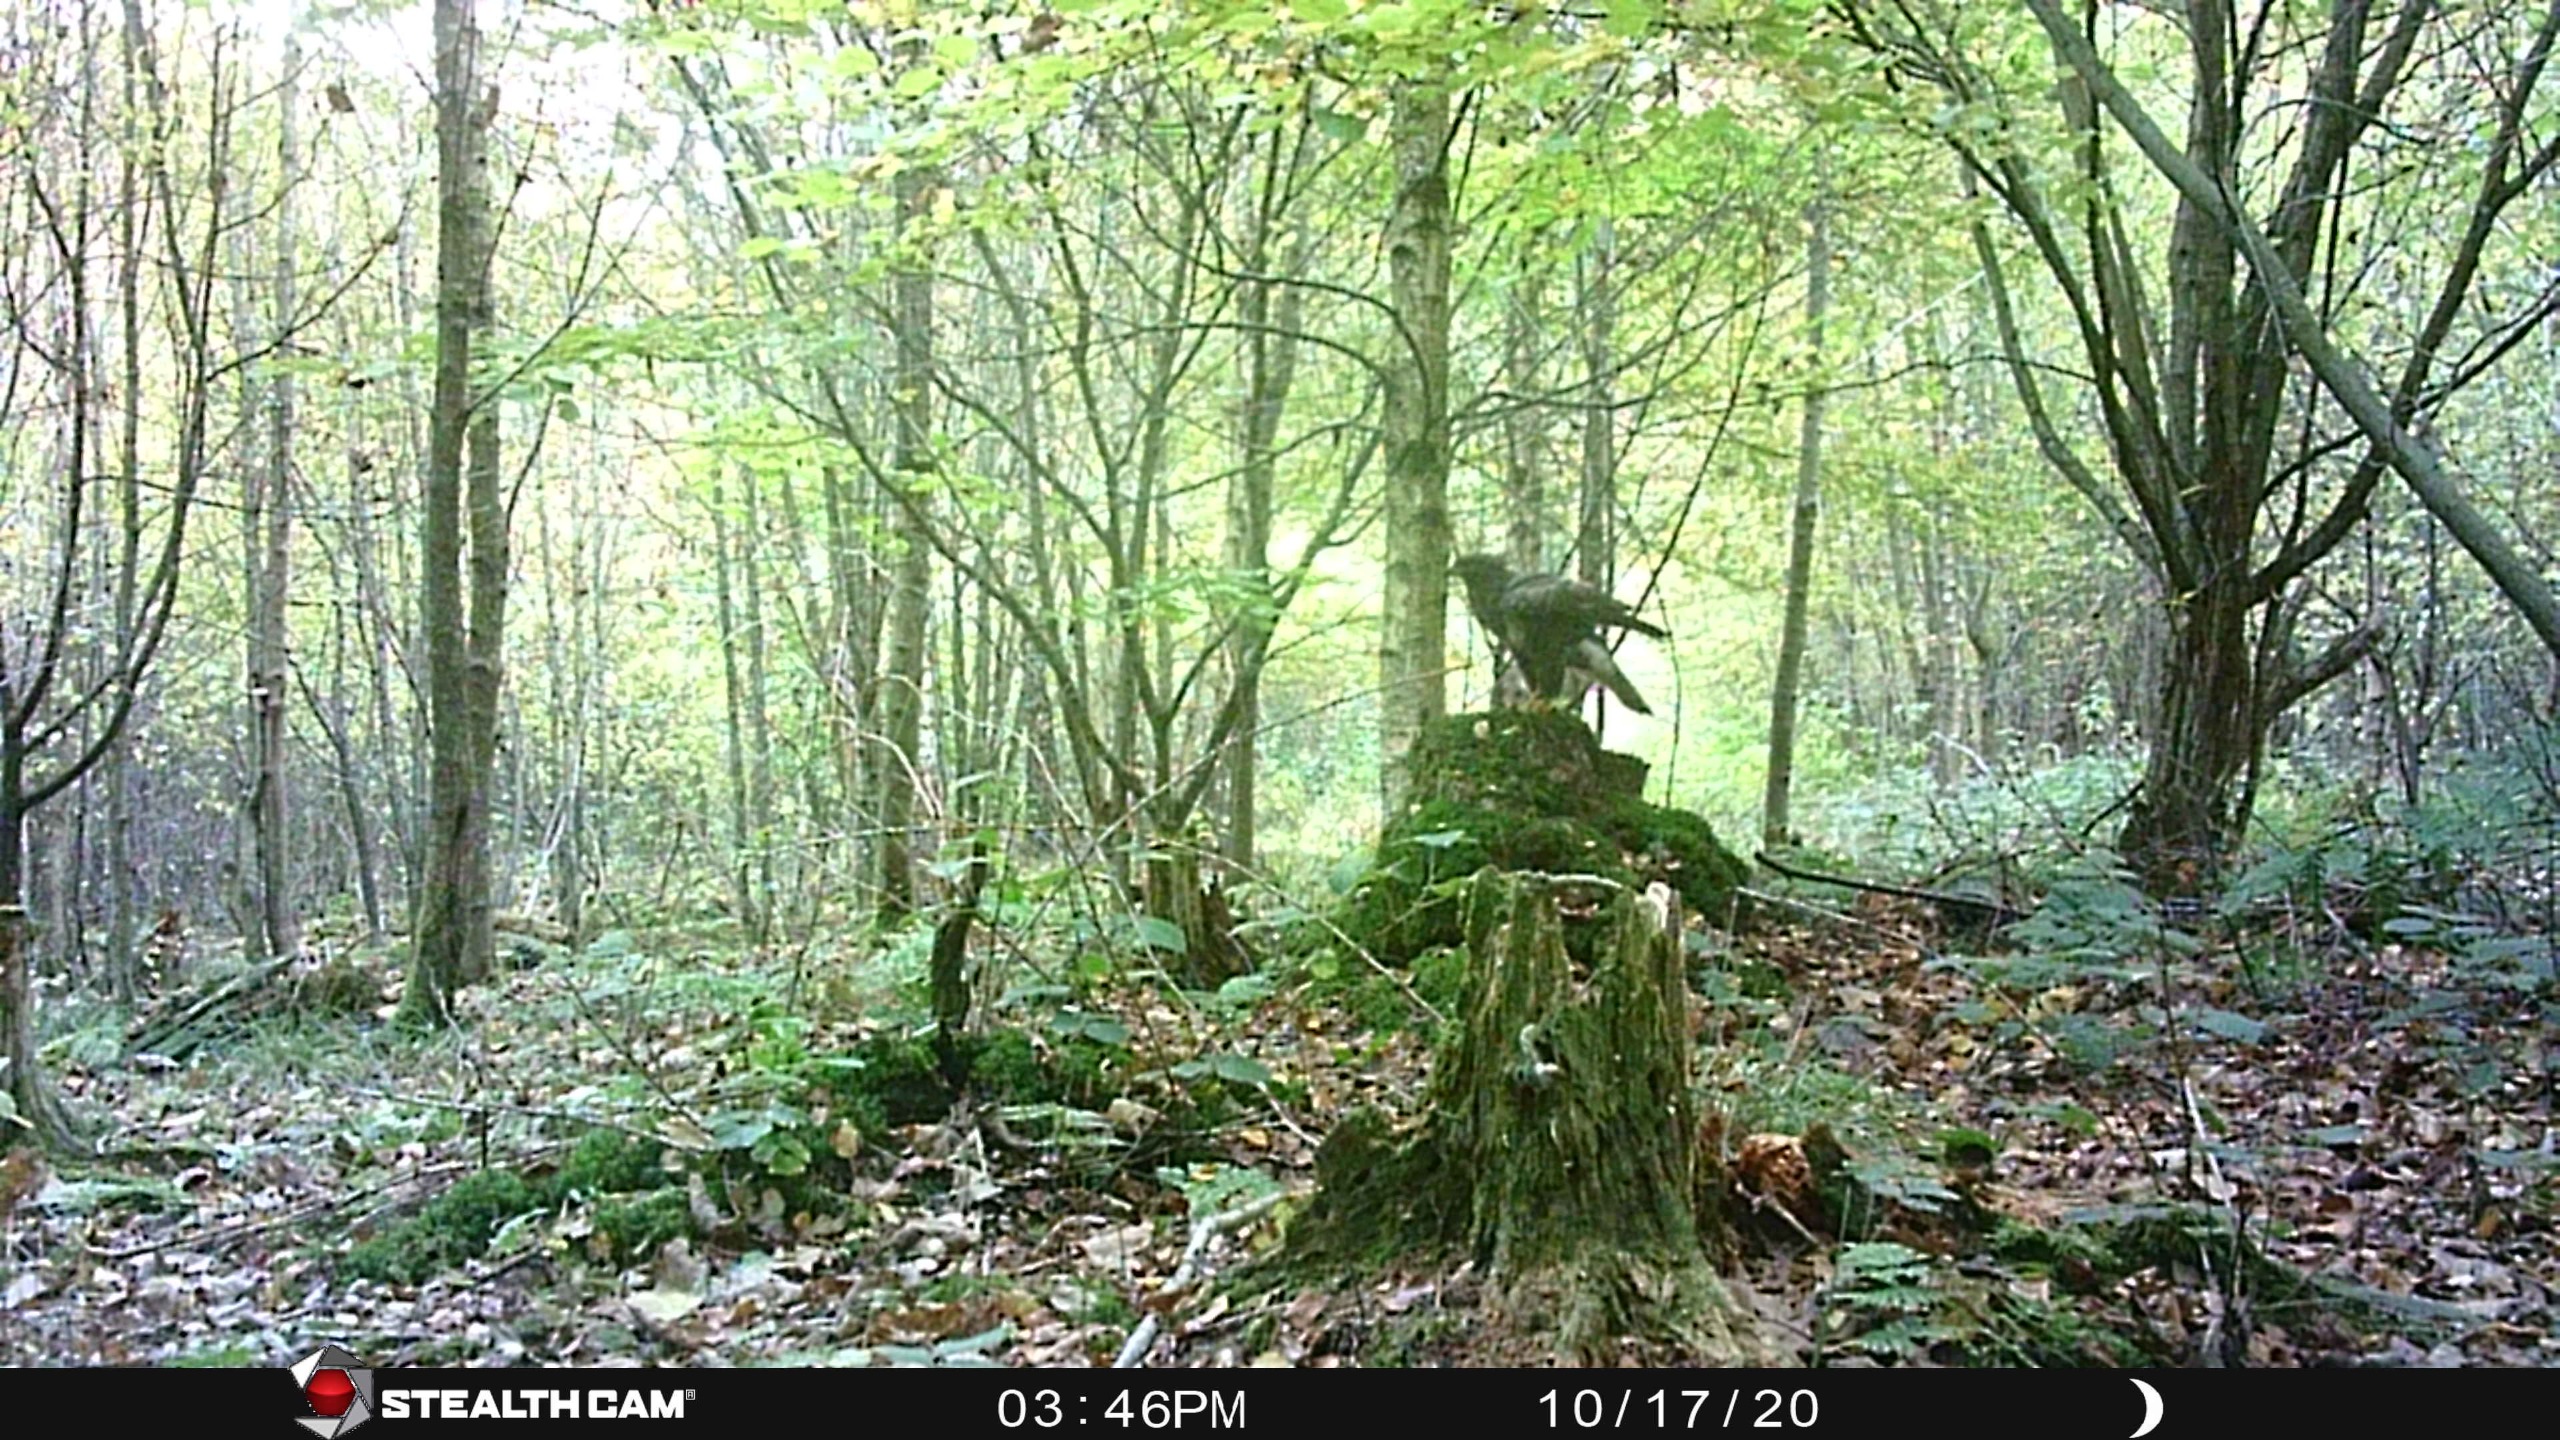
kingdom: Animalia
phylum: Chordata
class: Aves
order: Accipitriformes
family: Accipitridae
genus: Buteo
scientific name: Buteo buteo
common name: Musvåge
